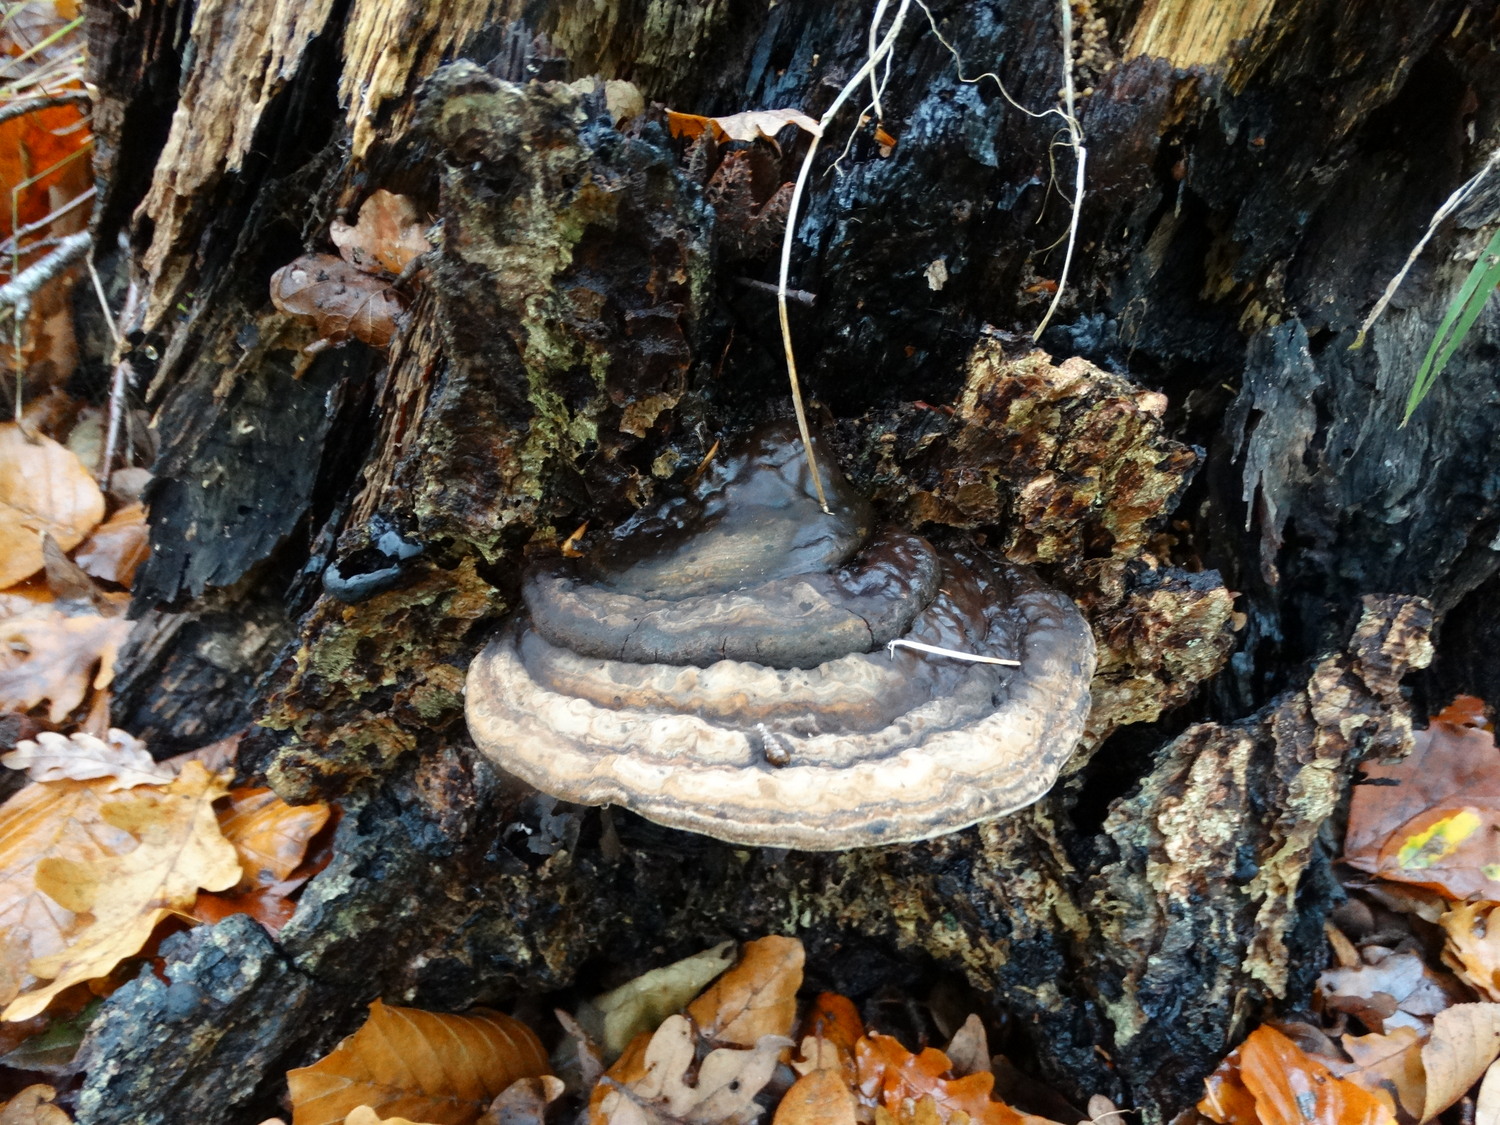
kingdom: Fungi
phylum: Basidiomycota
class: Agaricomycetes
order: Polyporales
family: Polyporaceae
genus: Ganoderma
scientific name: Ganoderma applanatum
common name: flad lakporesvamp
